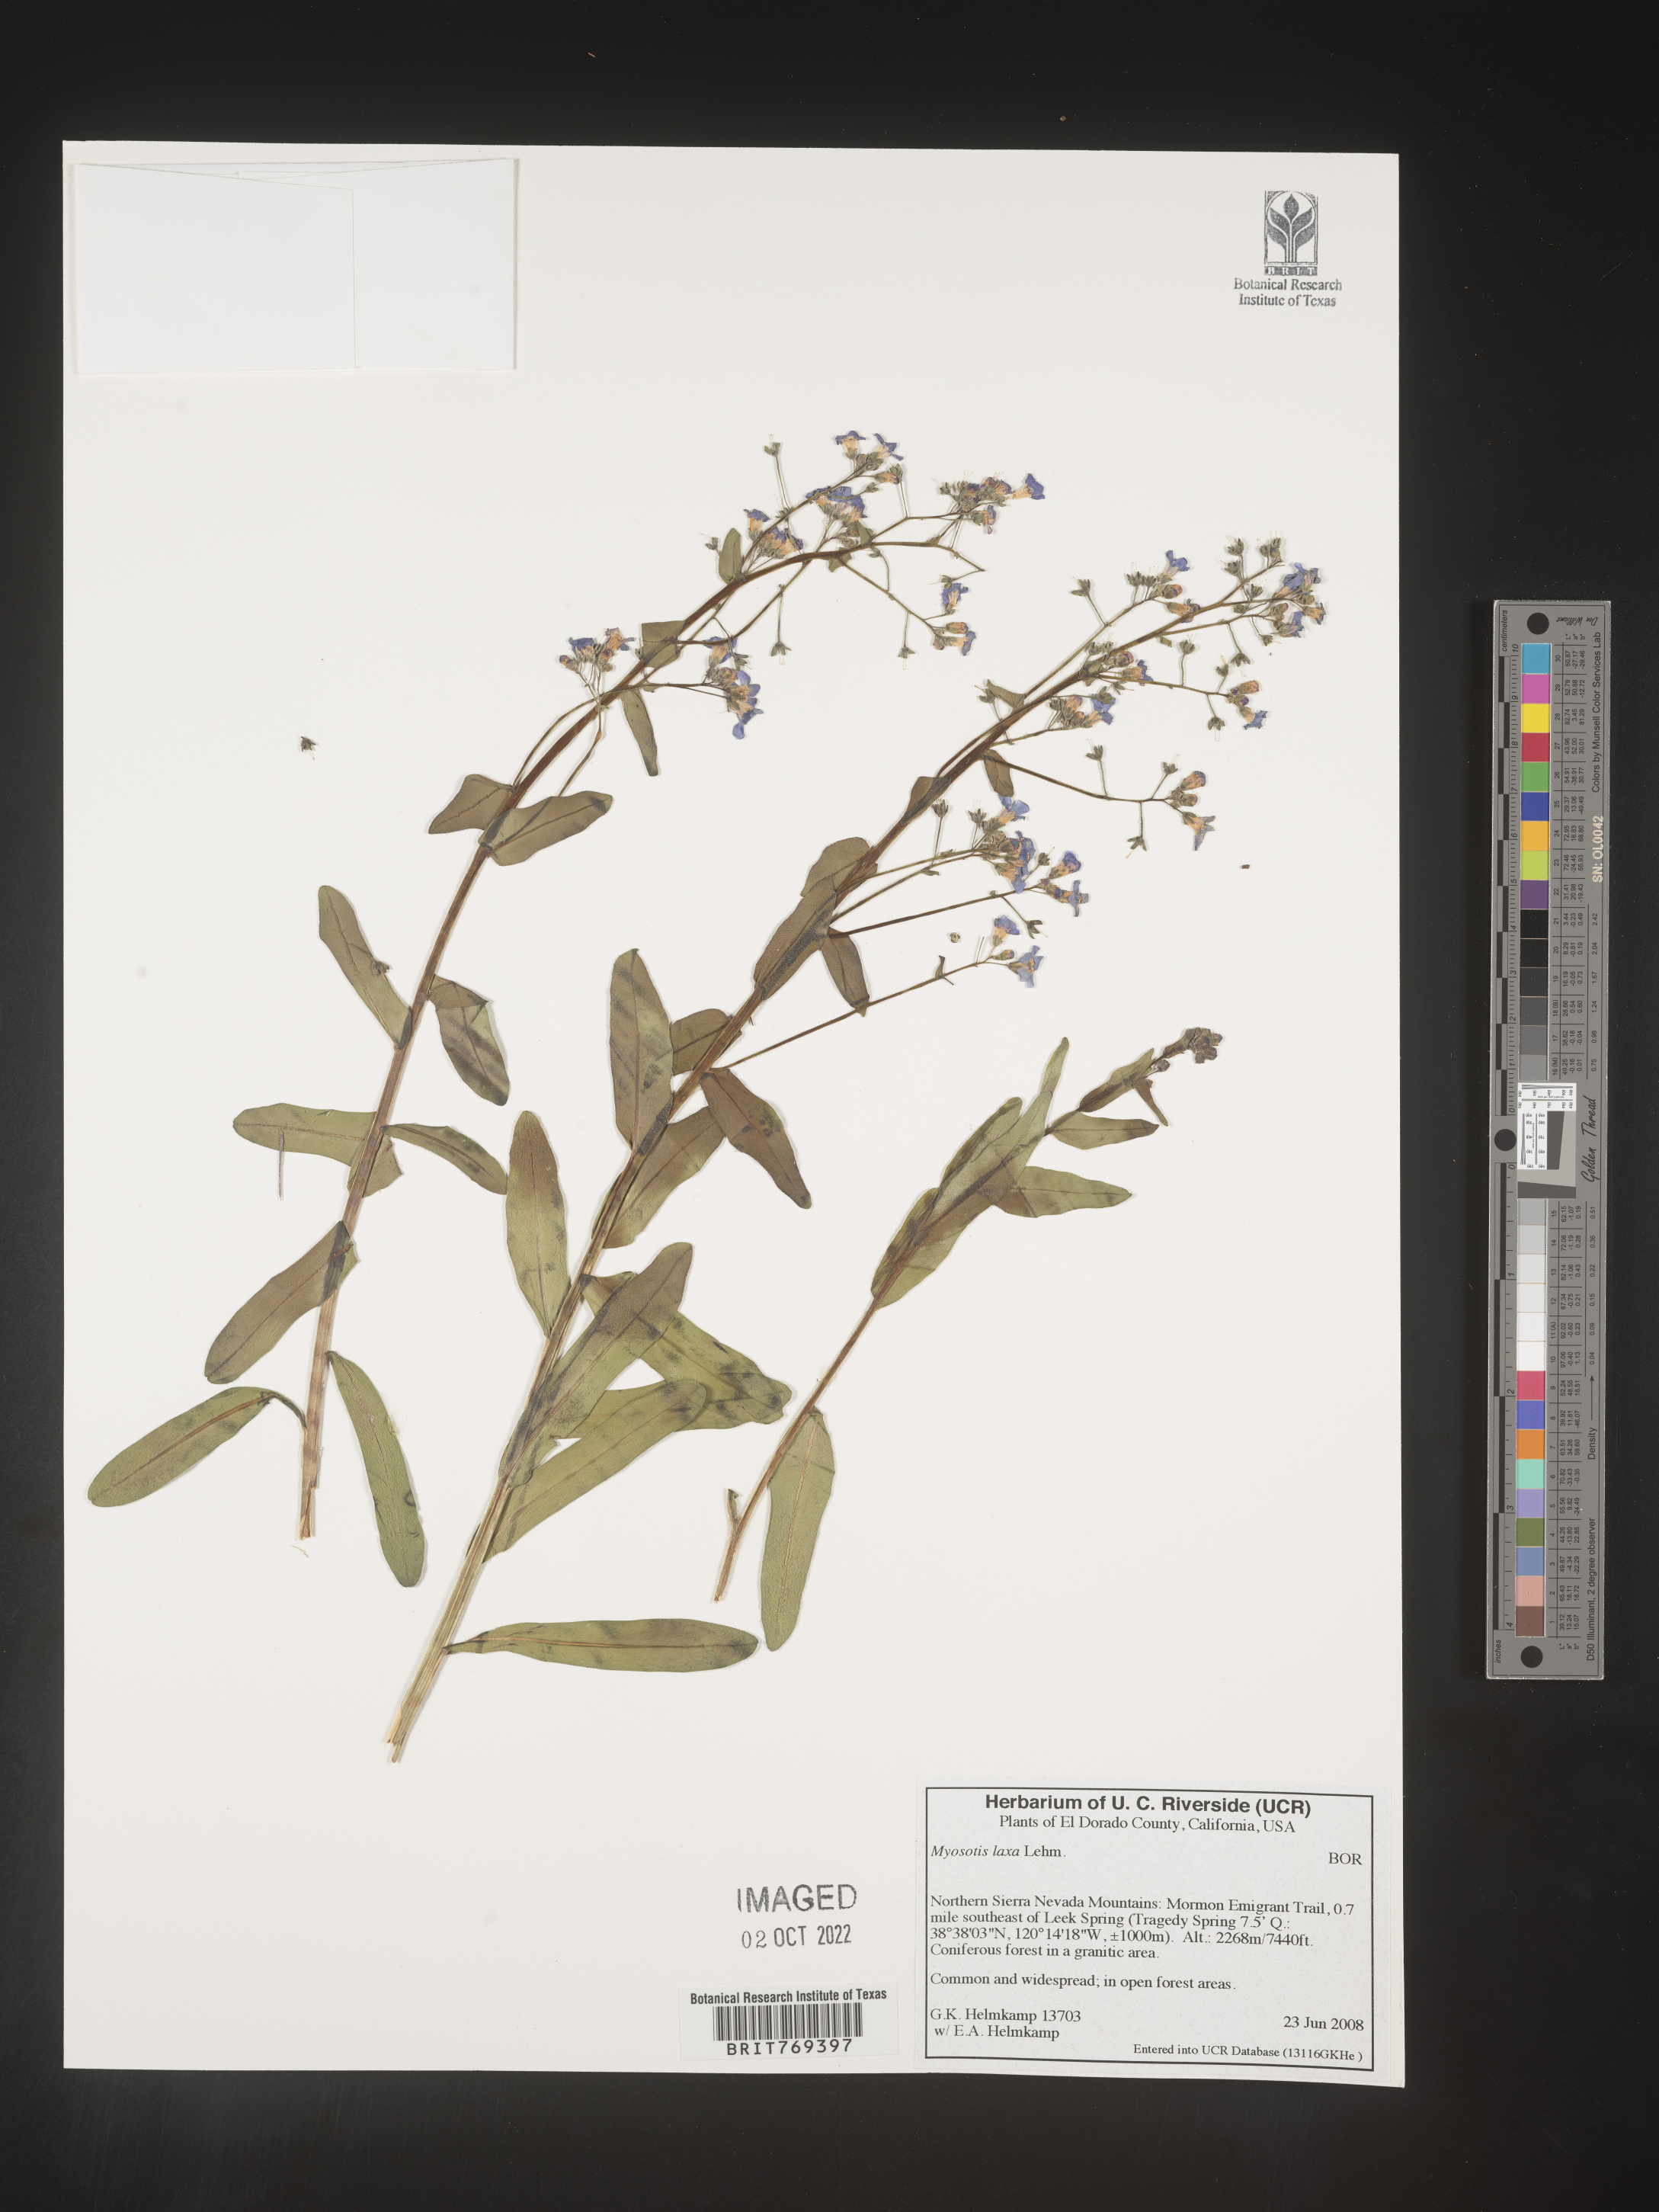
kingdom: Plantae
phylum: Tracheophyta
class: Magnoliopsida
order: Boraginales
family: Boraginaceae
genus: Myosotis
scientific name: Myosotis
